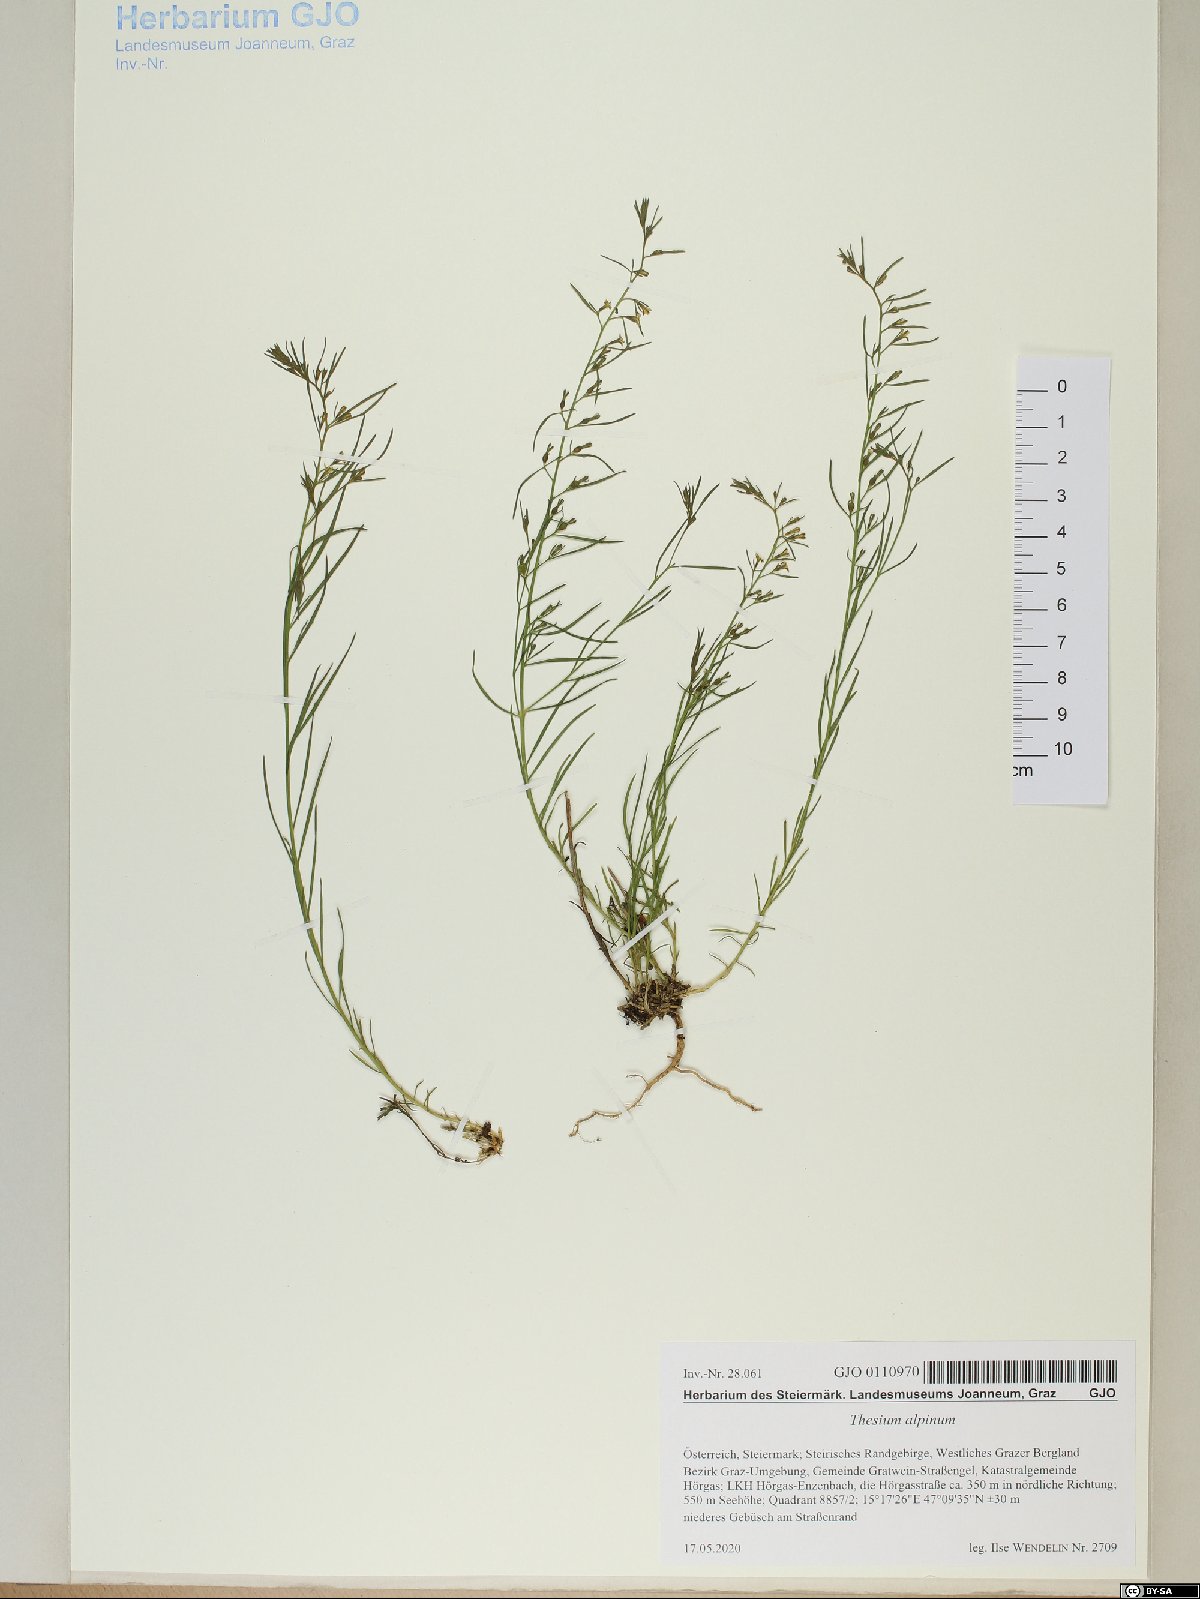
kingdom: Plantae
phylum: Tracheophyta
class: Magnoliopsida
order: Santalales
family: Thesiaceae
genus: Thesium
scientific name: Thesium alpinum
